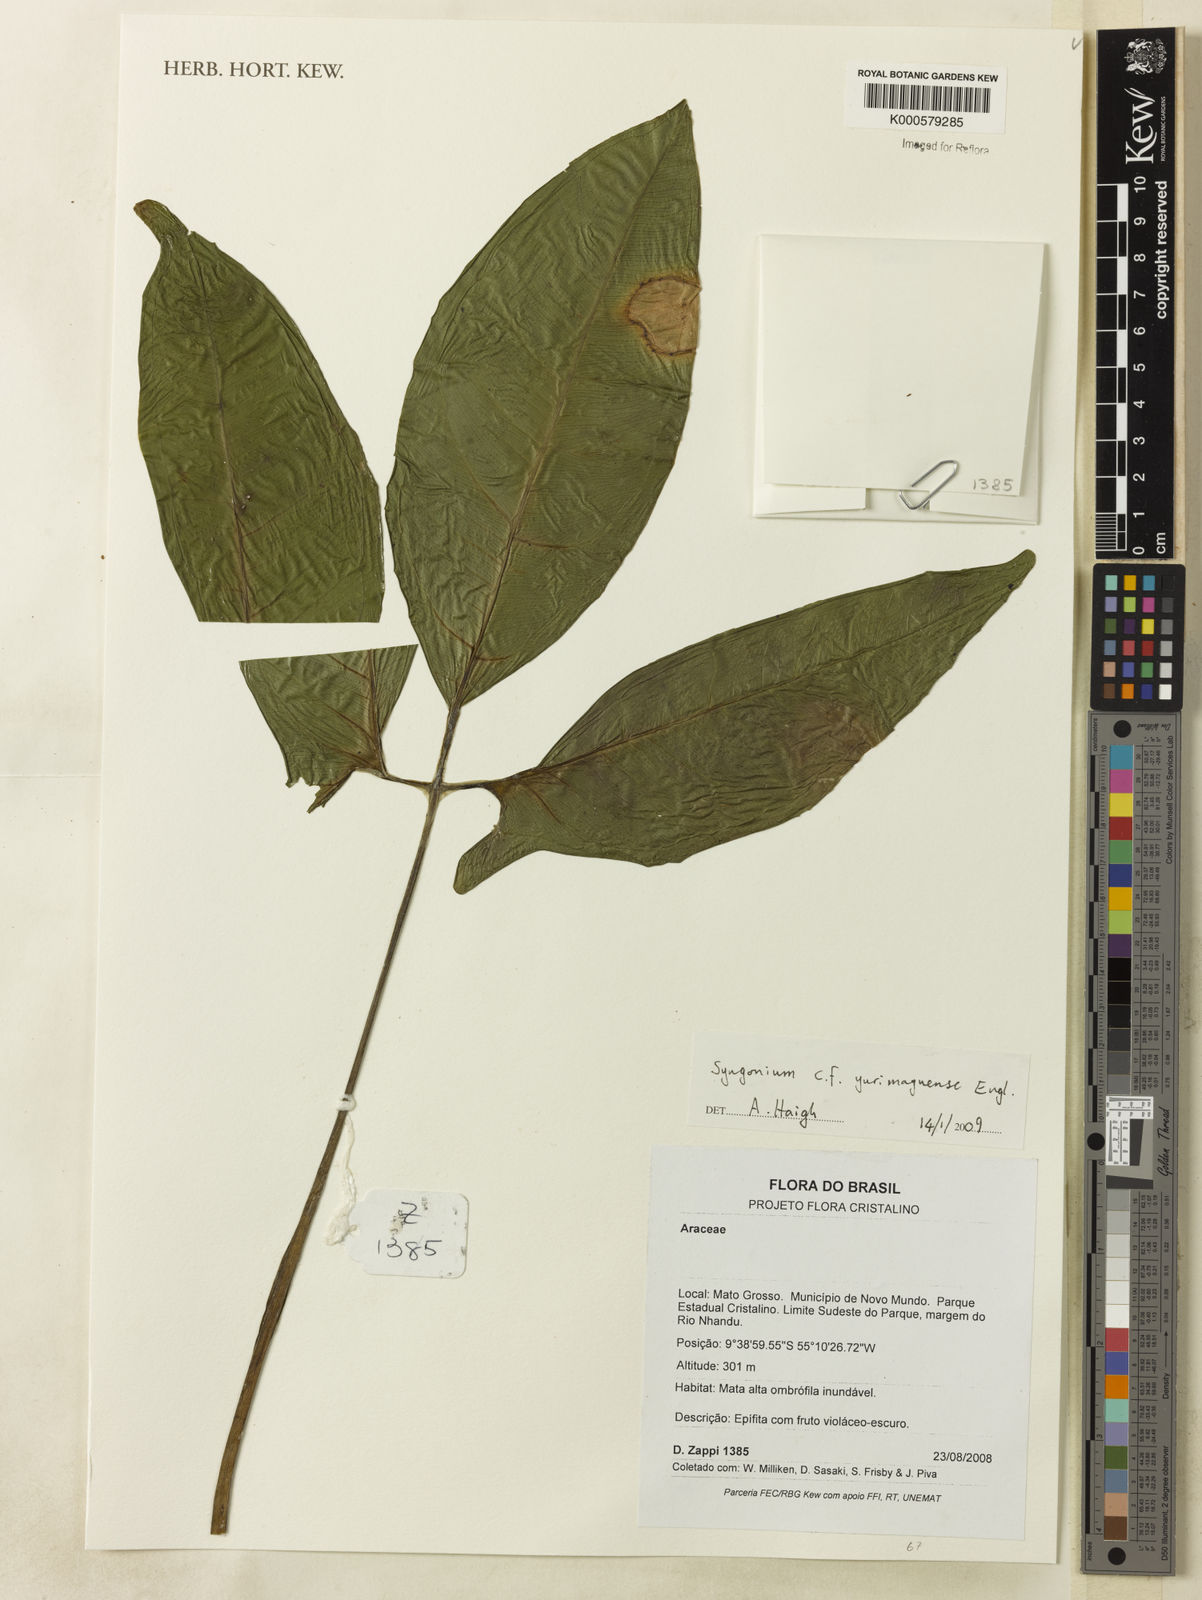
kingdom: Plantae
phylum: Tracheophyta
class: Liliopsida
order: Alismatales
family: Araceae
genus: Syngonium
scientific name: Syngonium yurimaguense
